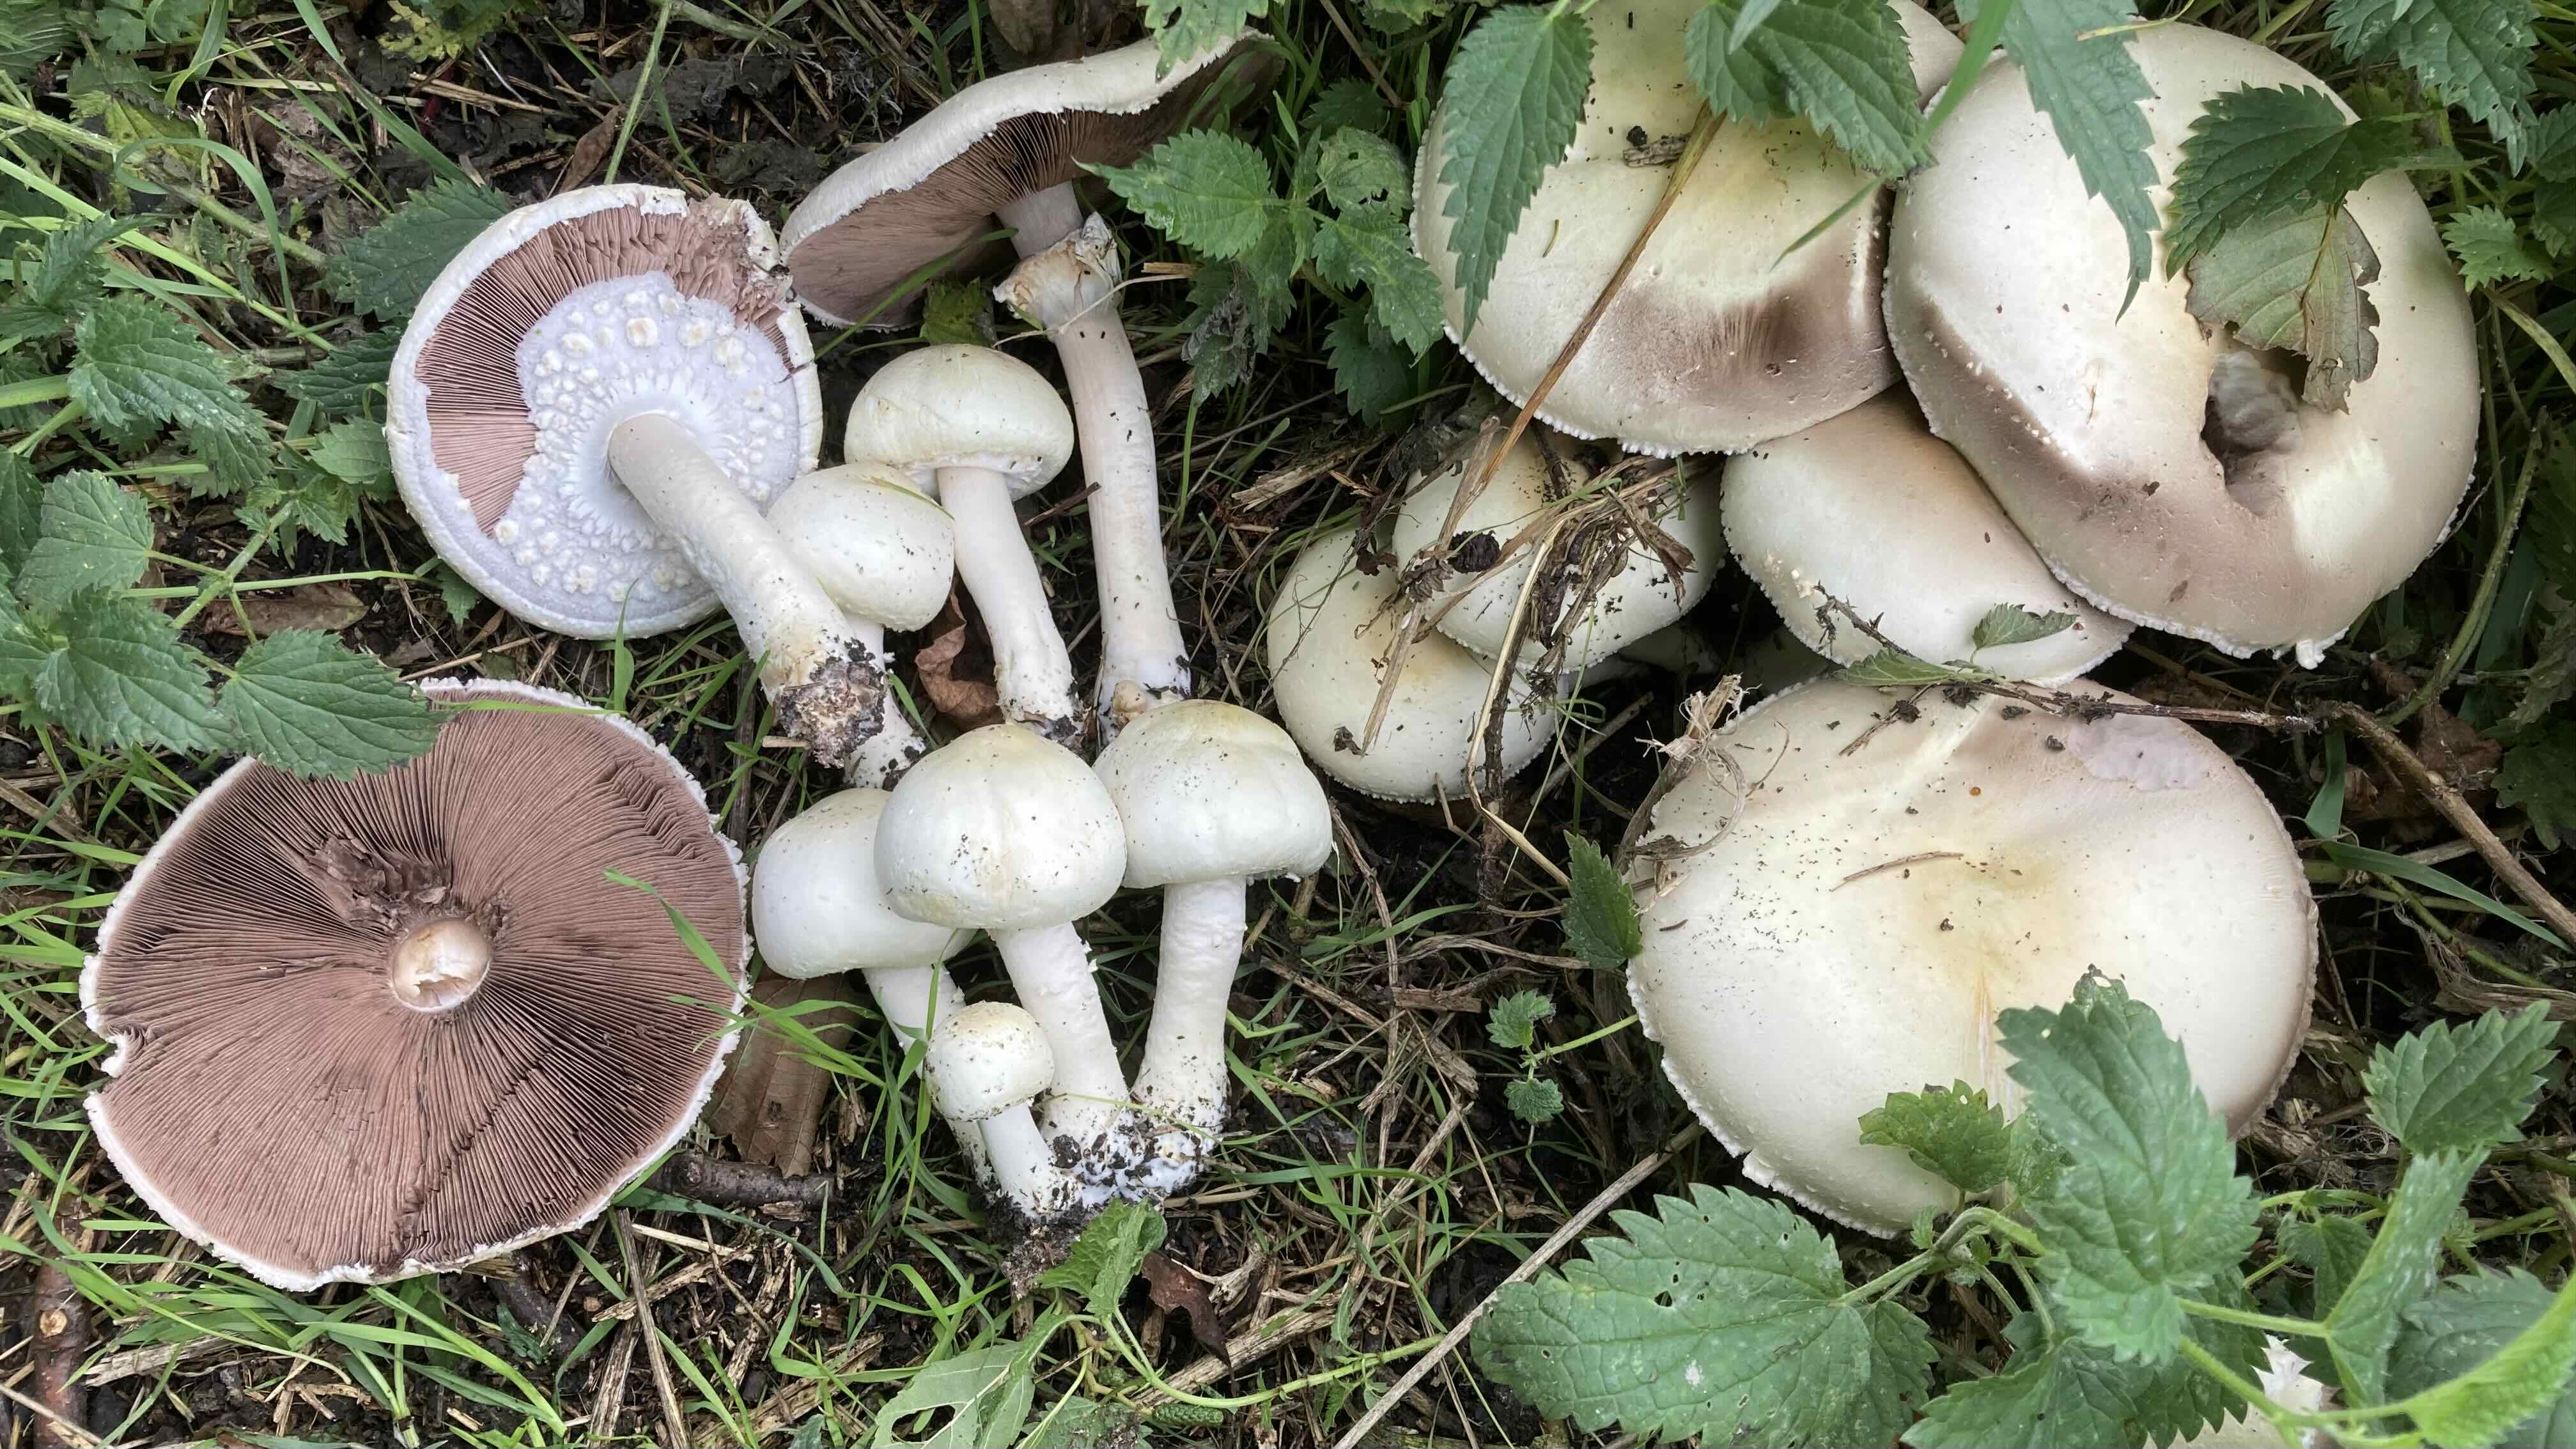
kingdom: Fungi
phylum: Basidiomycota
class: Agaricomycetes
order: Agaricales
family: Agaricaceae
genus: Agaricus
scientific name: Agaricus arvensis
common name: ager-champignon
